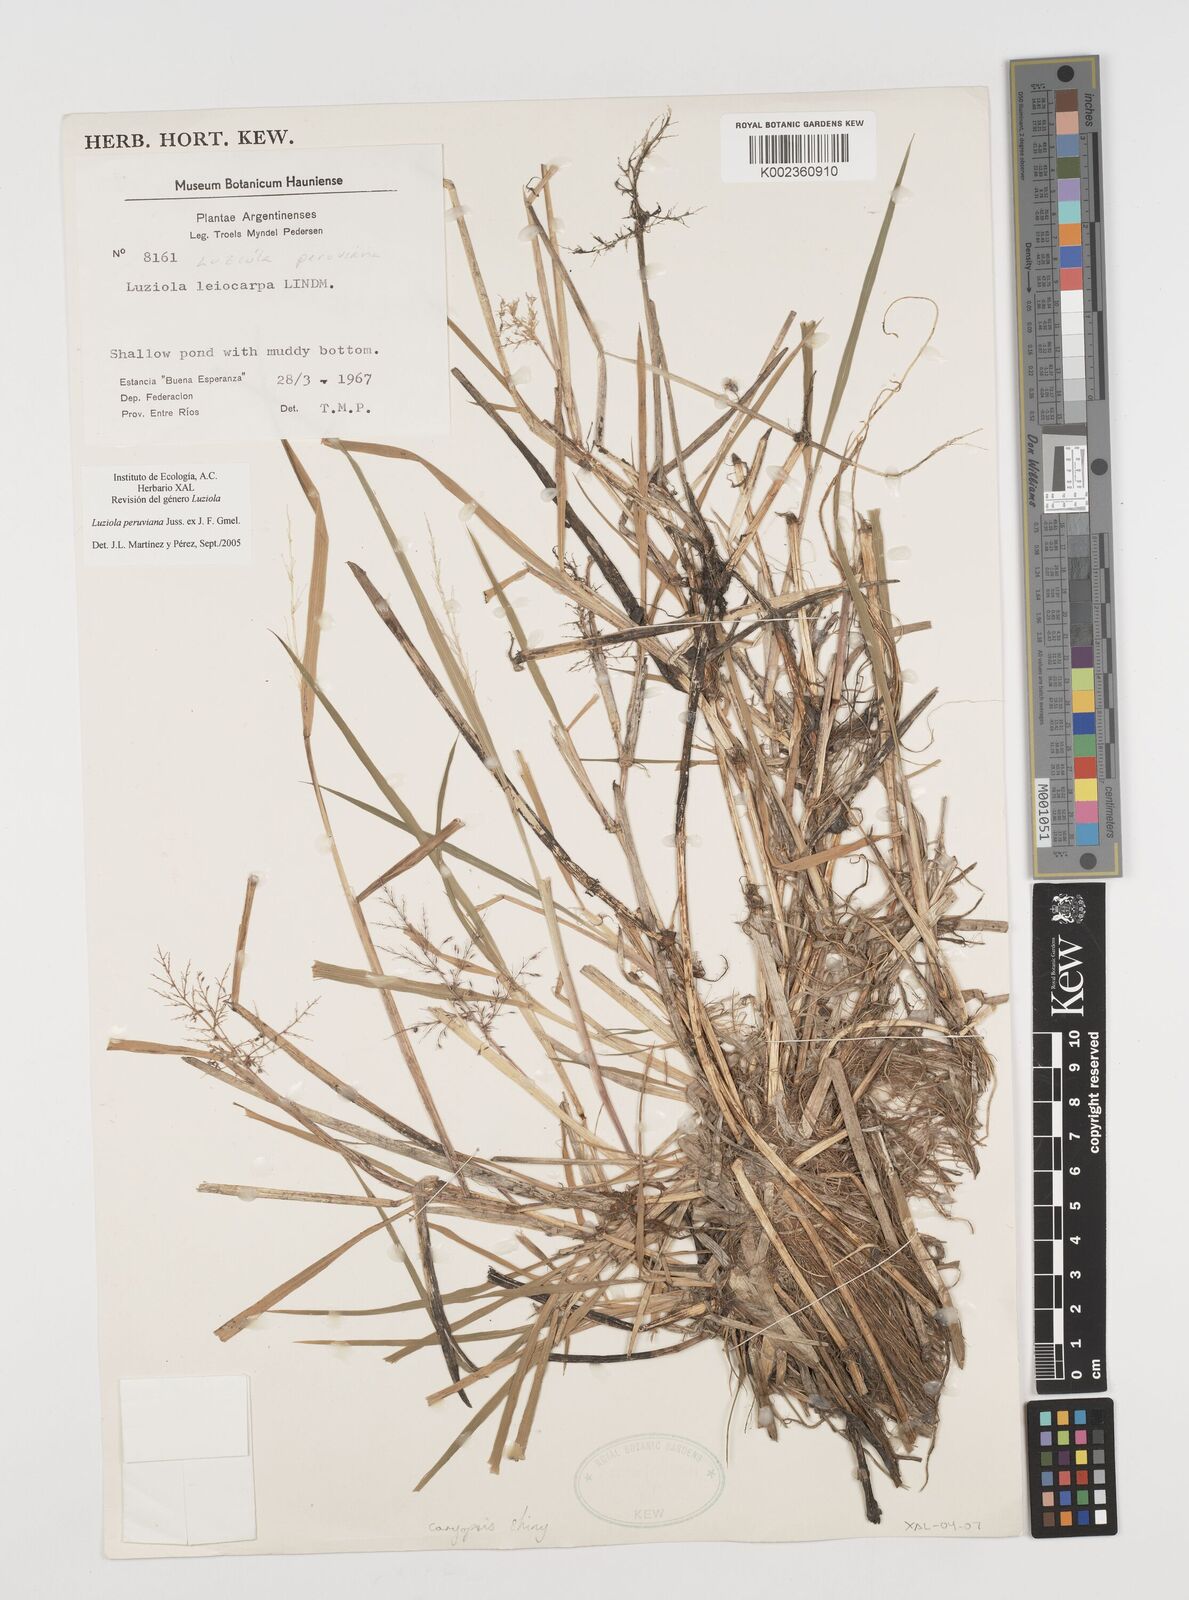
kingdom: Plantae
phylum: Tracheophyta
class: Liliopsida
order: Poales
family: Poaceae
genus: Luziola
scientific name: Luziola peruviana
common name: Peruvian watergrass
